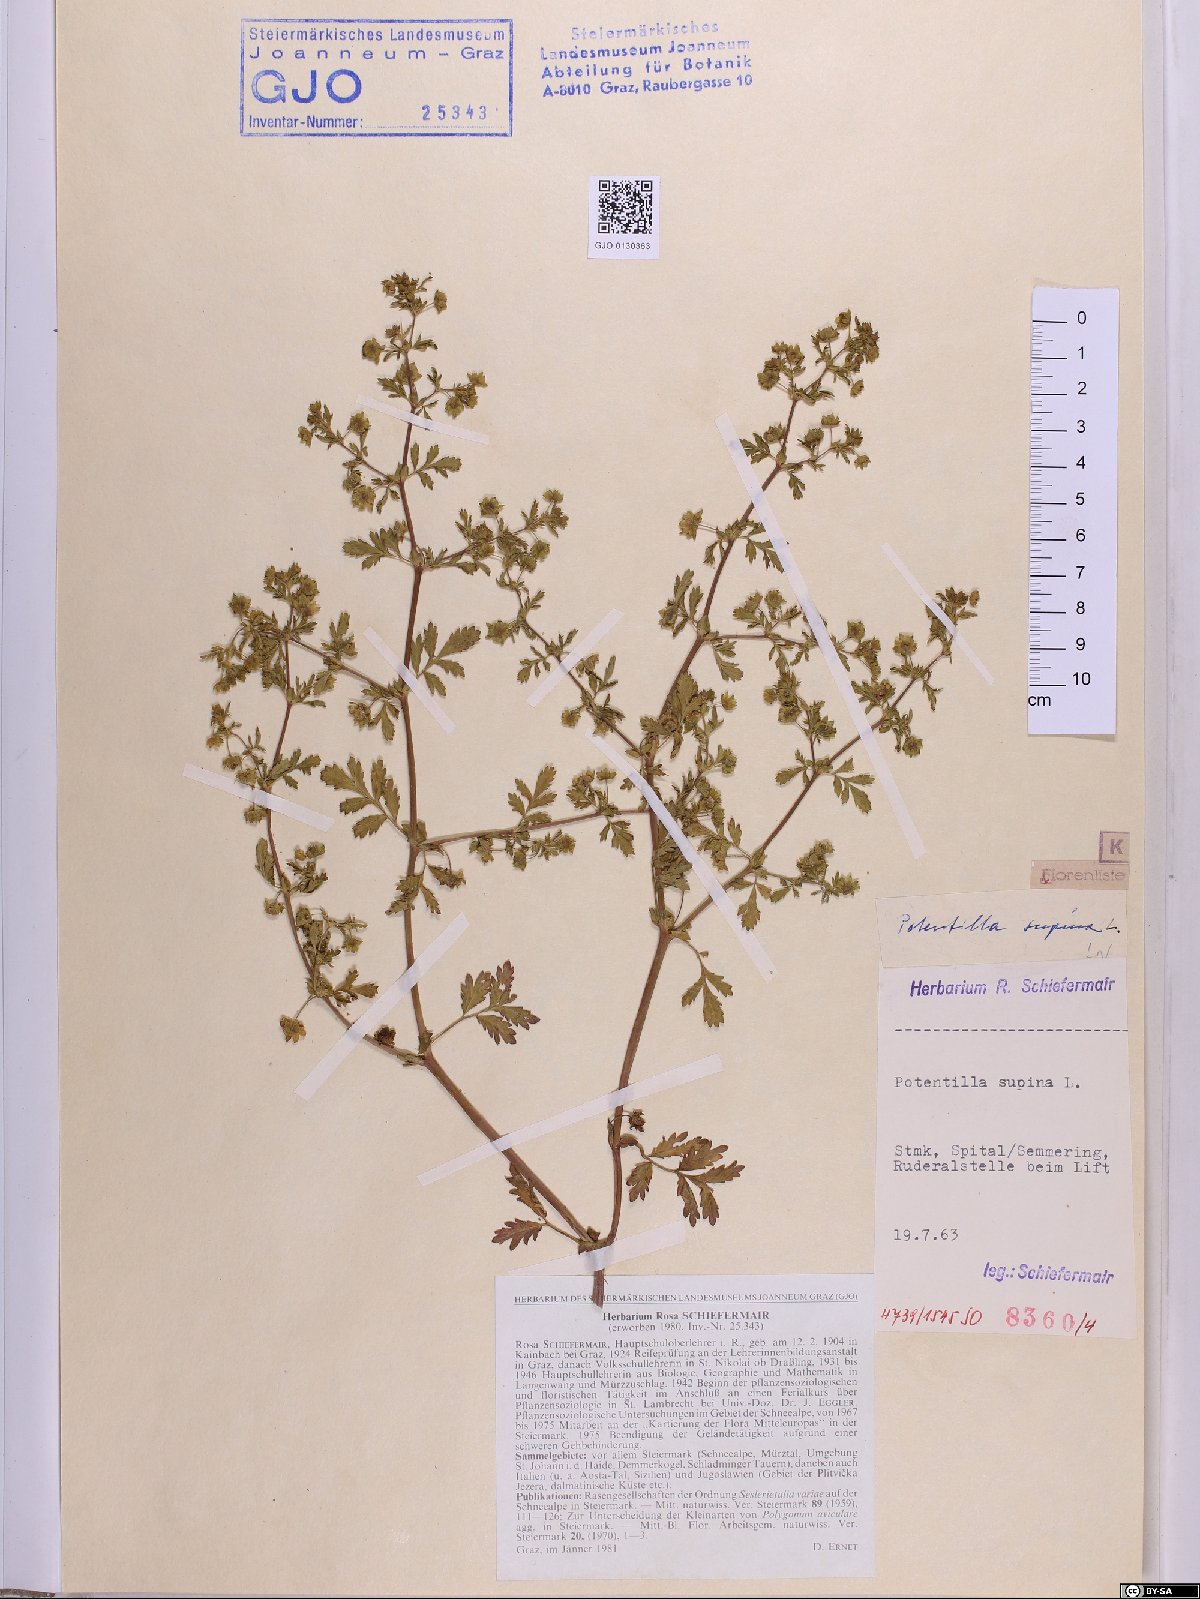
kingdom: Plantae
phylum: Tracheophyta
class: Magnoliopsida
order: Rosales
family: Rosaceae
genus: Potentilla
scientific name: Potentilla supina
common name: Prostrate cinquefoil
